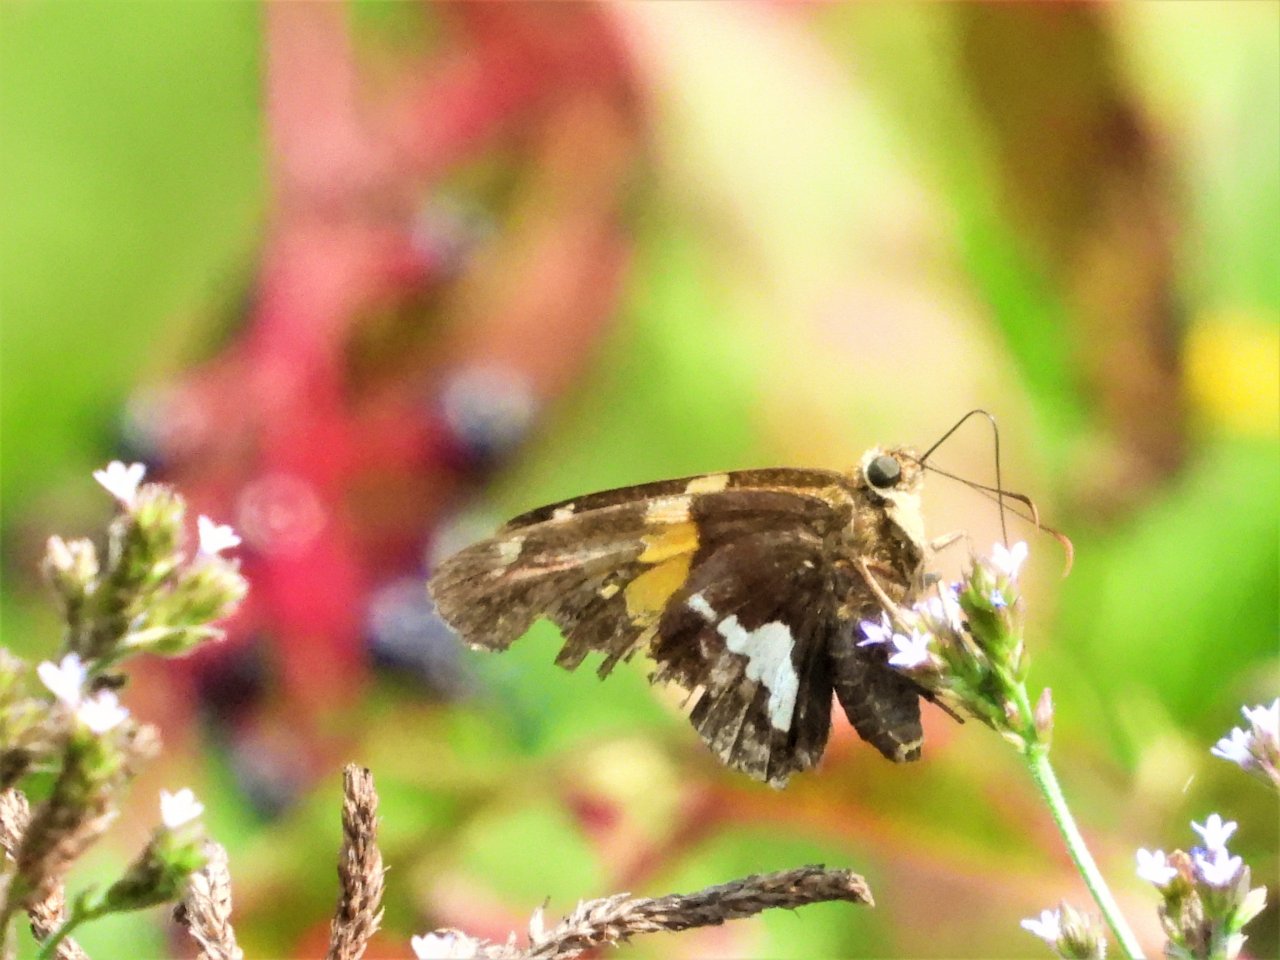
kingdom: Animalia
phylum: Arthropoda
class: Insecta
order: Lepidoptera
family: Hesperiidae
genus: Epargyreus
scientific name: Epargyreus clarus
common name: Silver-spotted Skipper
